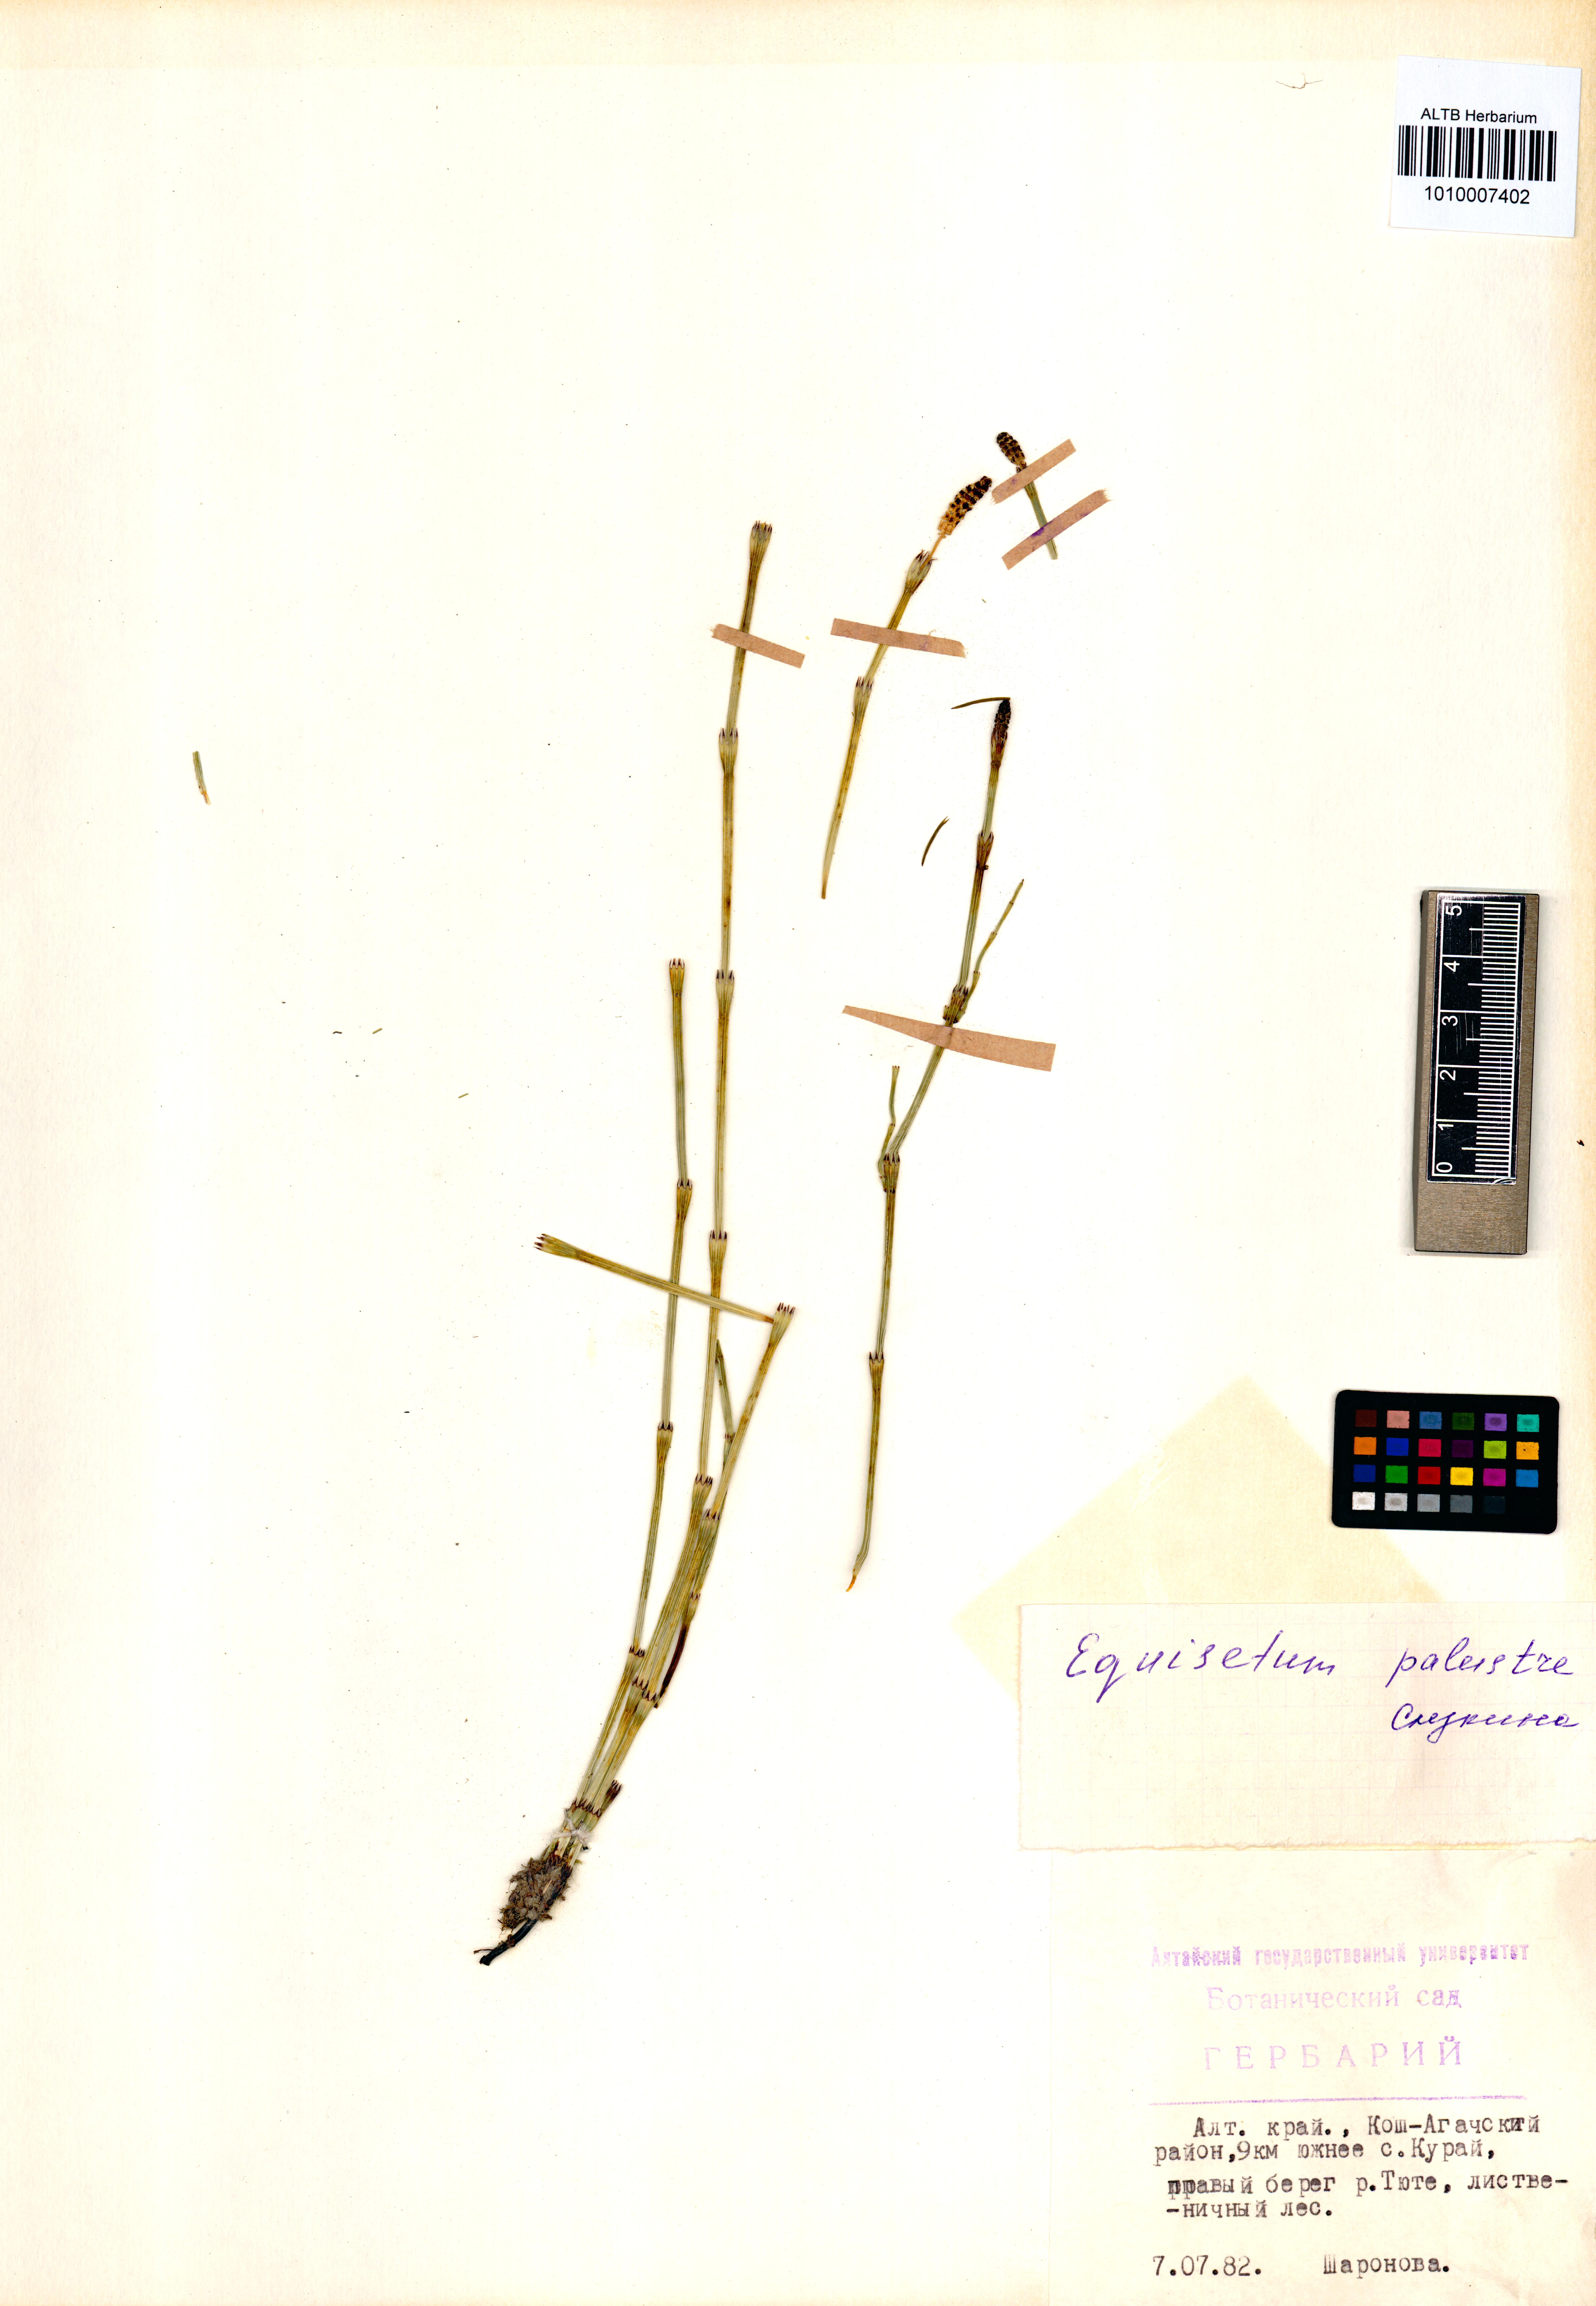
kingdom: Plantae
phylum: Tracheophyta
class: Polypodiopsida
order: Equisetales
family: Equisetaceae
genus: Equisetum
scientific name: Equisetum palustre
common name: Marsh horsetail
